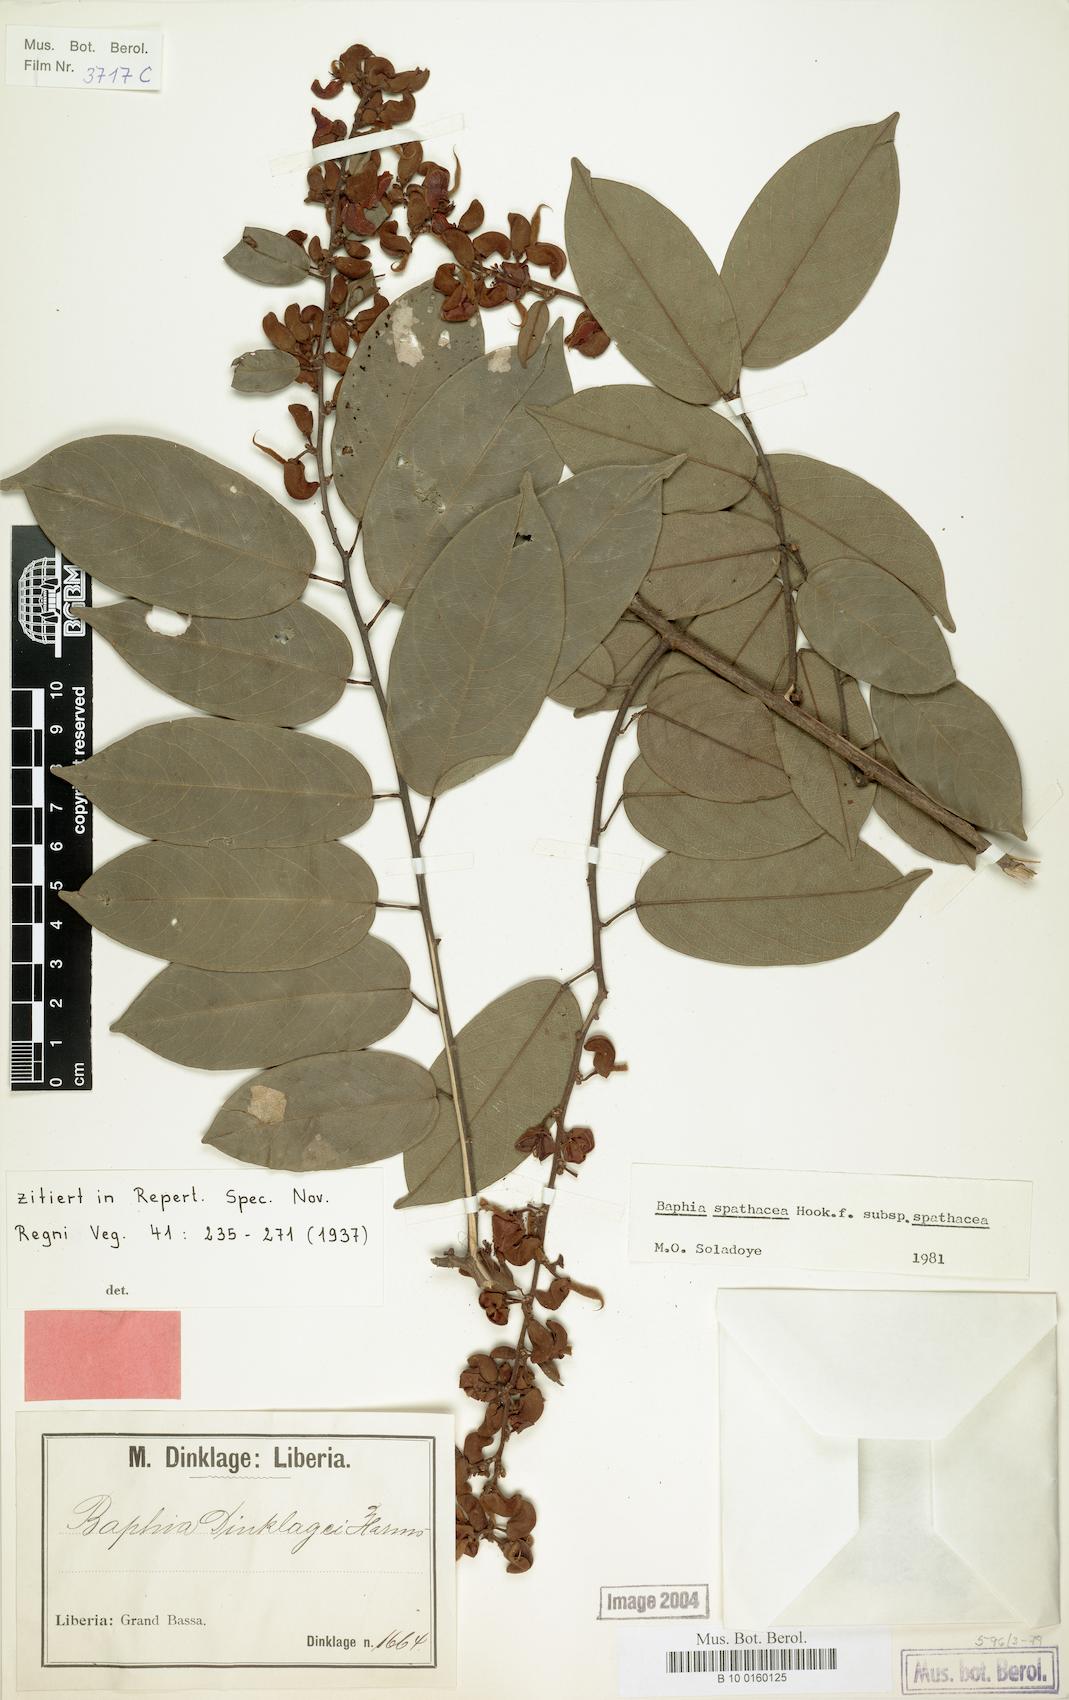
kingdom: Plantae
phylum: Tracheophyta
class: Magnoliopsida
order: Fabales
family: Fabaceae
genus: Baphia
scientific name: Baphia spathacea
